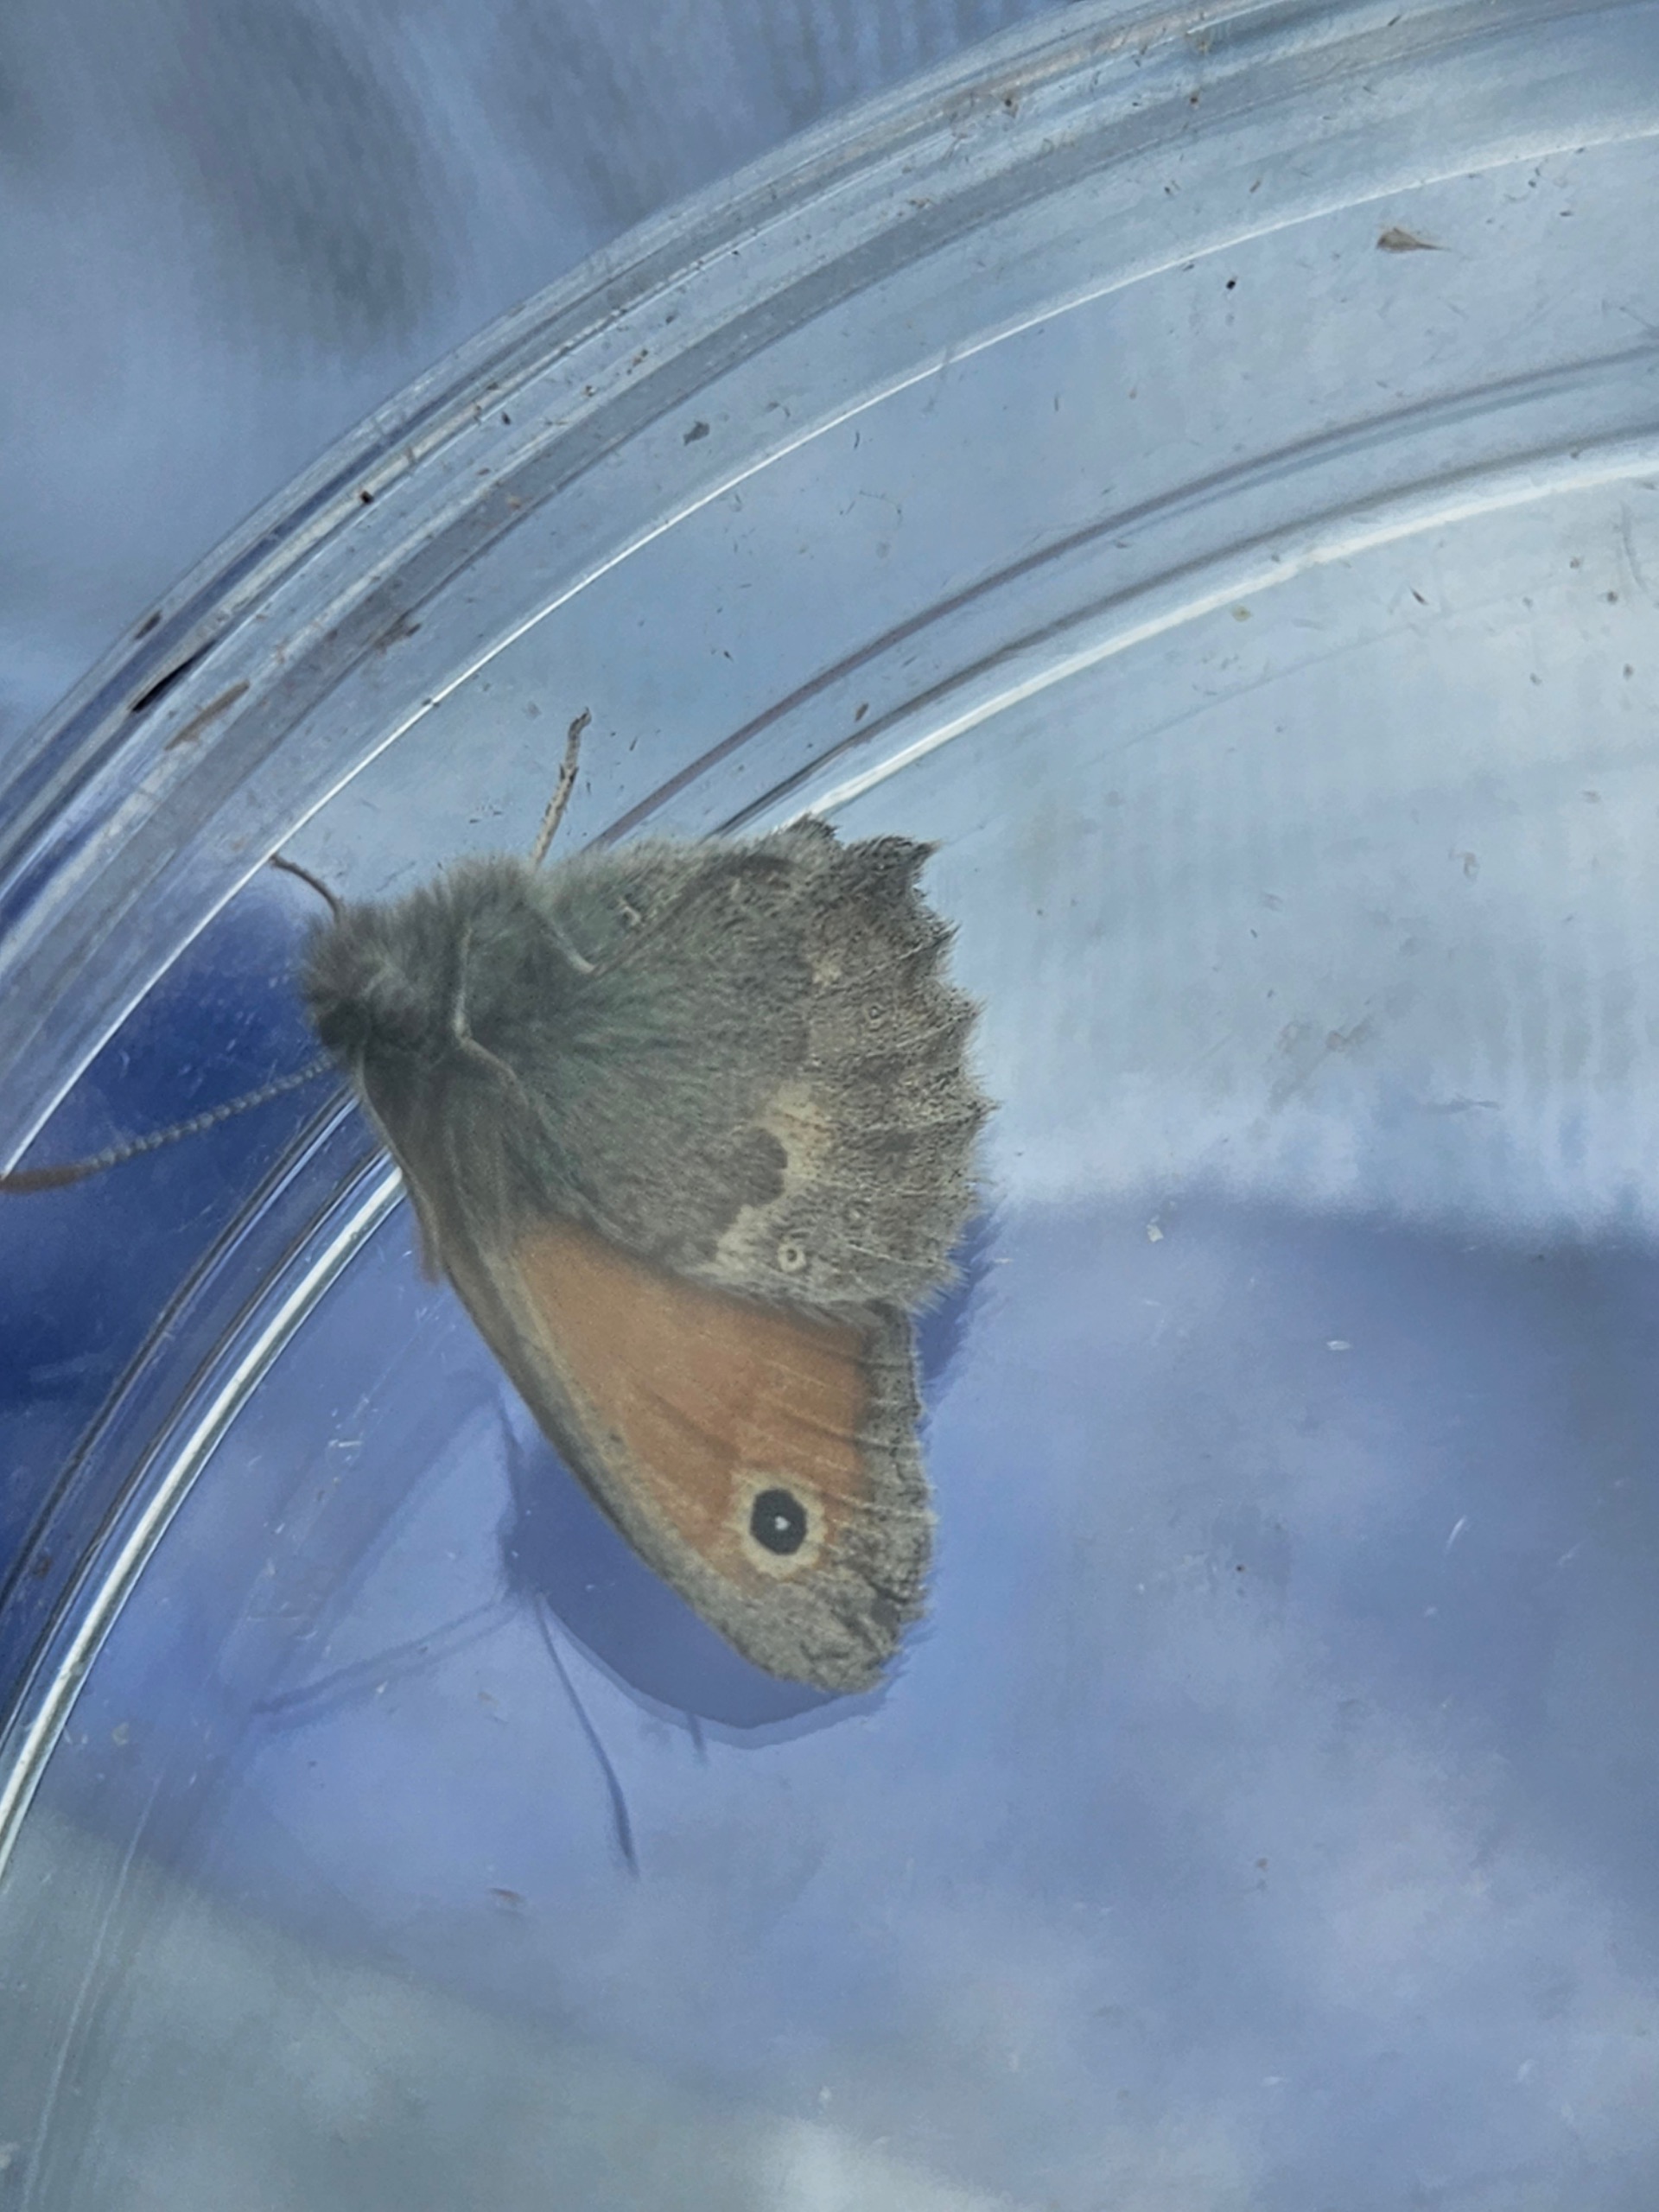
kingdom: Animalia
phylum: Arthropoda
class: Insecta
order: Lepidoptera
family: Nymphalidae
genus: Coenonympha
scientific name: Coenonympha pamphilus
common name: Okkergul randøje
